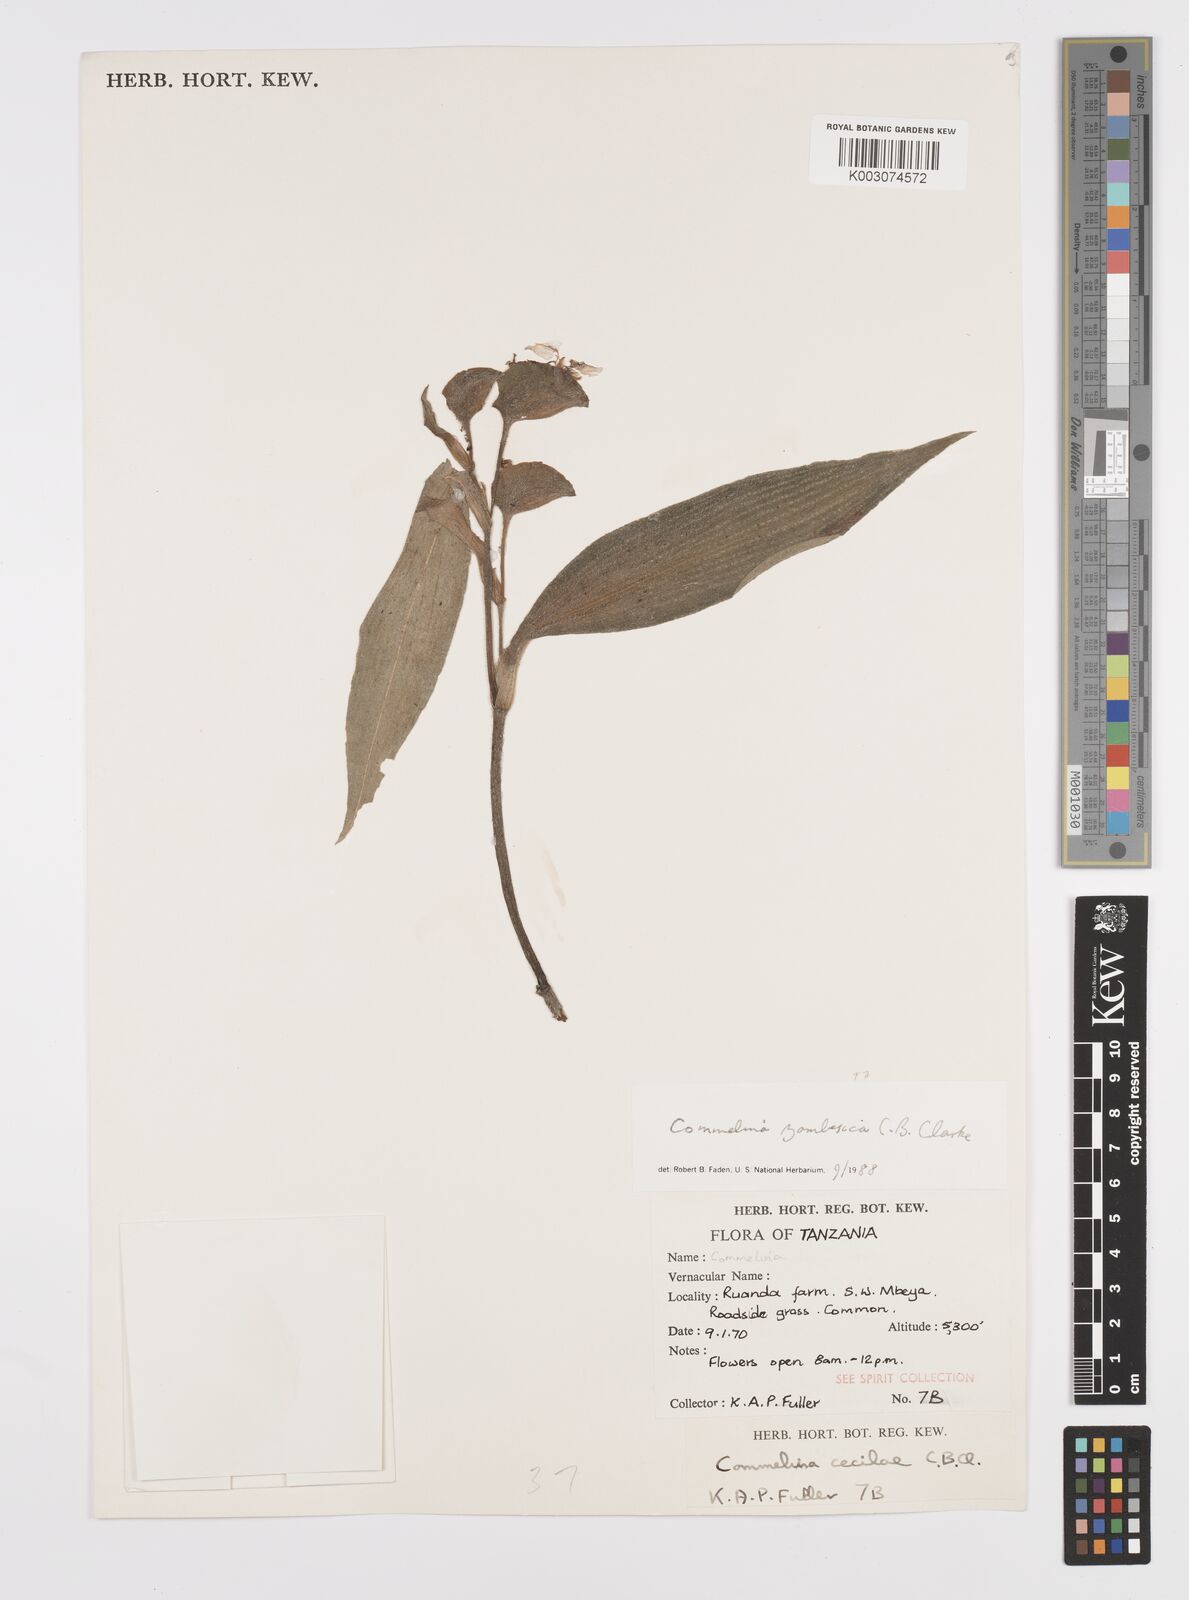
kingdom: Plantae
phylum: Tracheophyta
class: Liliopsida
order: Commelinales
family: Commelinaceae
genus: Commelina
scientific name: Commelina zambesica
